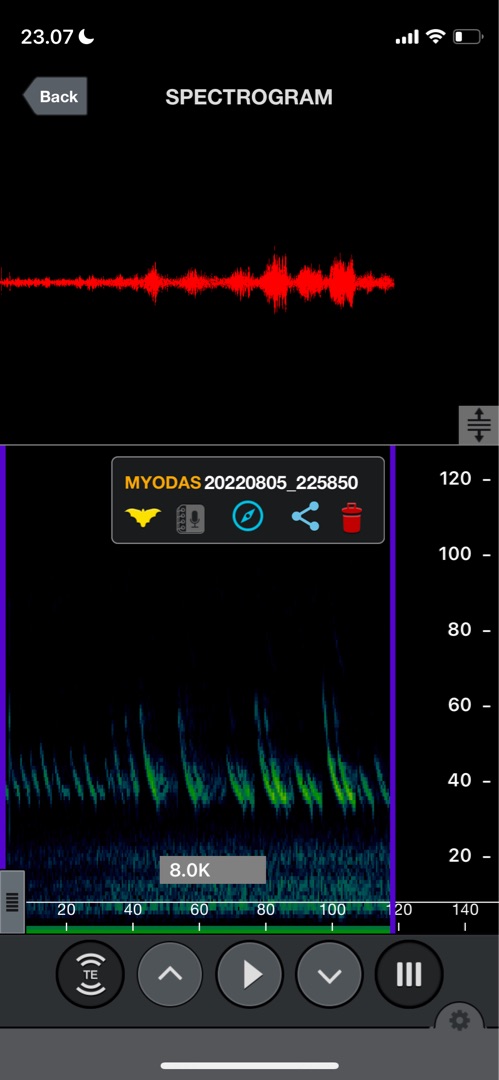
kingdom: Animalia
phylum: Chordata
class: Mammalia
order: Chiroptera
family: Vespertilionidae
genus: Myotis
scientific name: Myotis dasycneme
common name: Damflagermus
